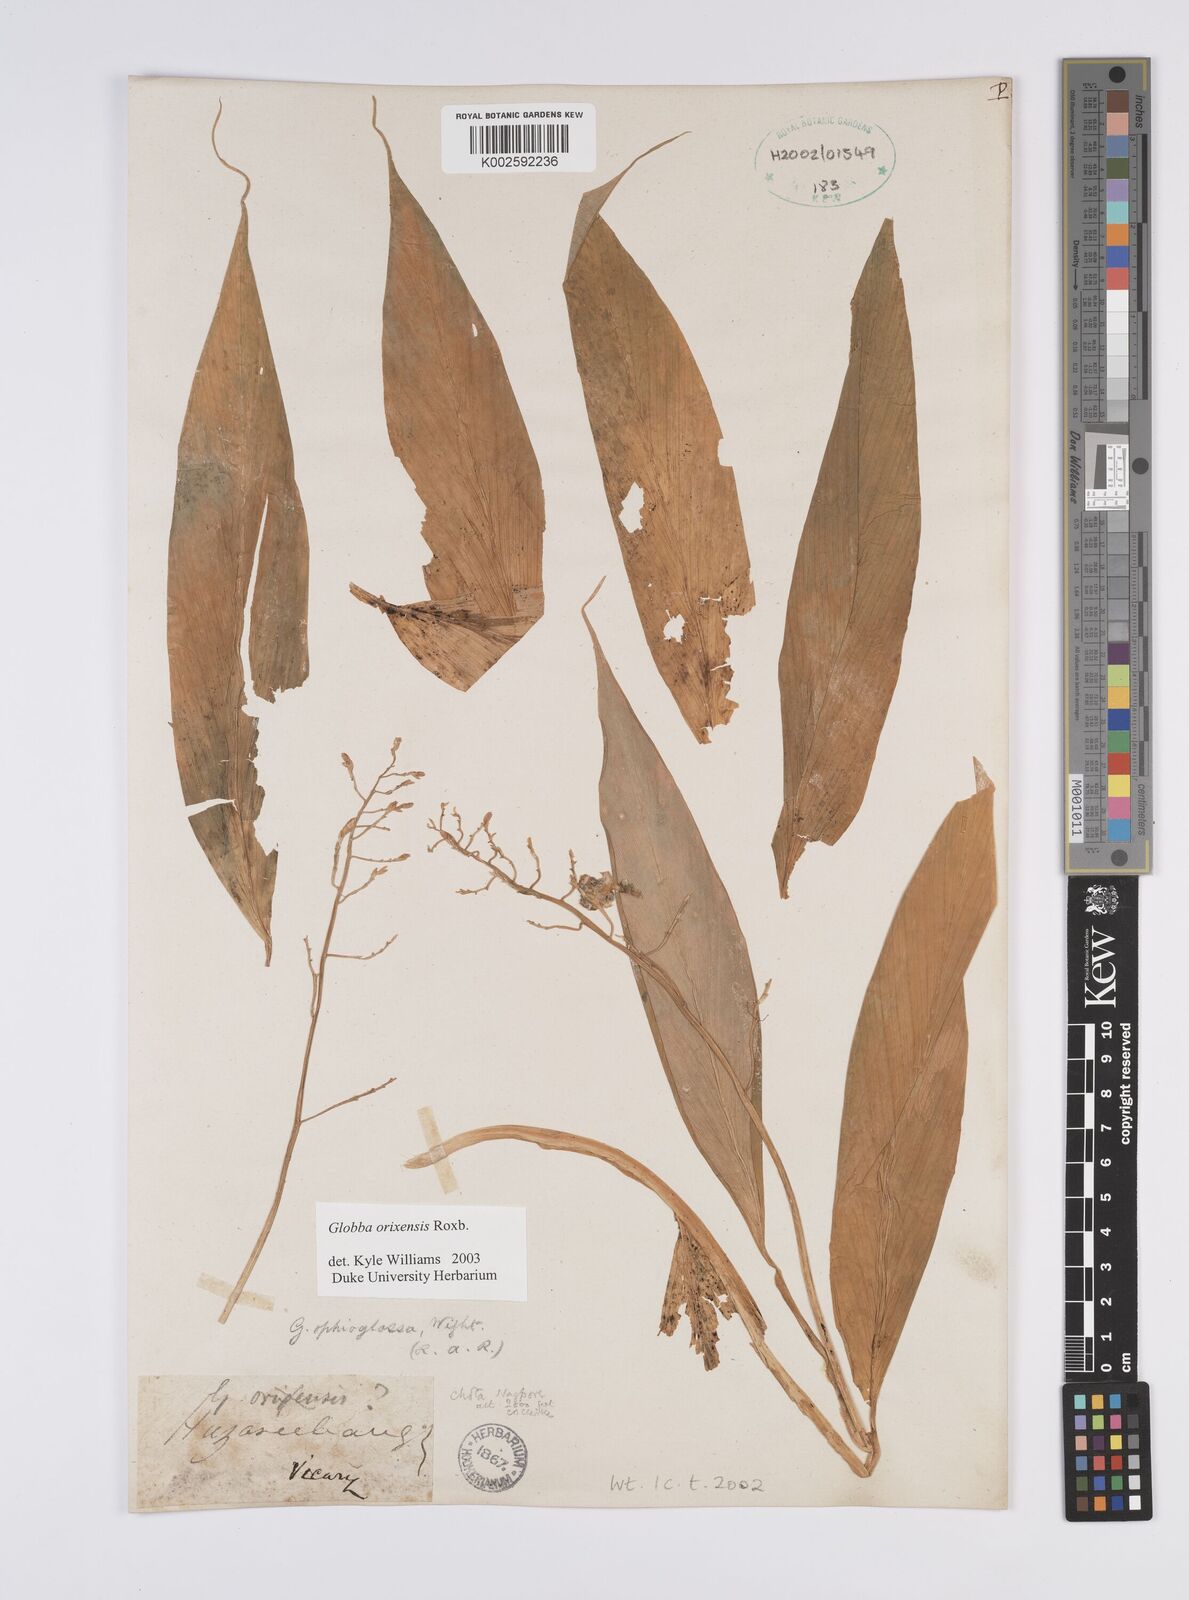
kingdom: Plantae
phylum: Tracheophyta
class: Liliopsida
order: Zingiberales
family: Zingiberaceae
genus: Globba
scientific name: Globba orixensis
